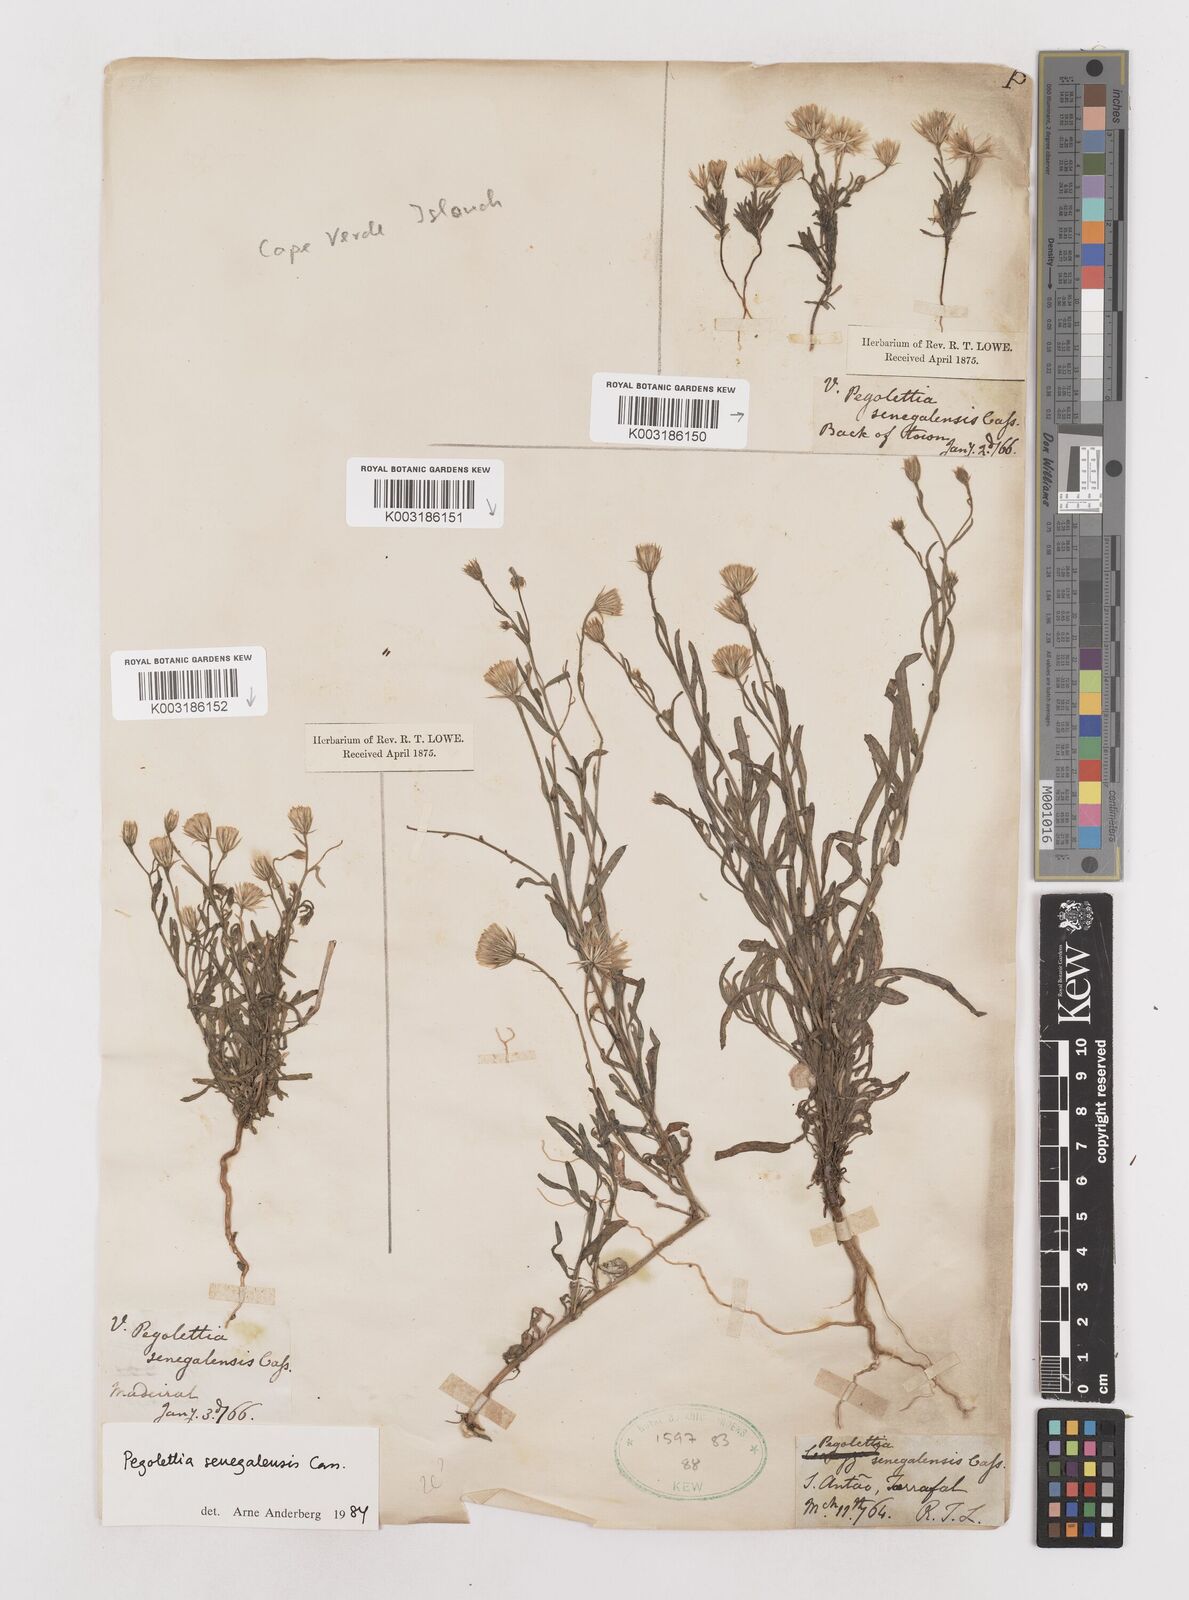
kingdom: Plantae
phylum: Tracheophyta
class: Magnoliopsida
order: Asterales
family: Asteraceae
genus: Pegolettia
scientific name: Pegolettia senegalensis
